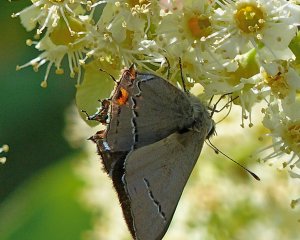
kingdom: Animalia
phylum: Arthropoda
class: Insecta
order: Lepidoptera
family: Lycaenidae
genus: Strymon
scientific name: Strymon melinus
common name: Gray Hairstreak
